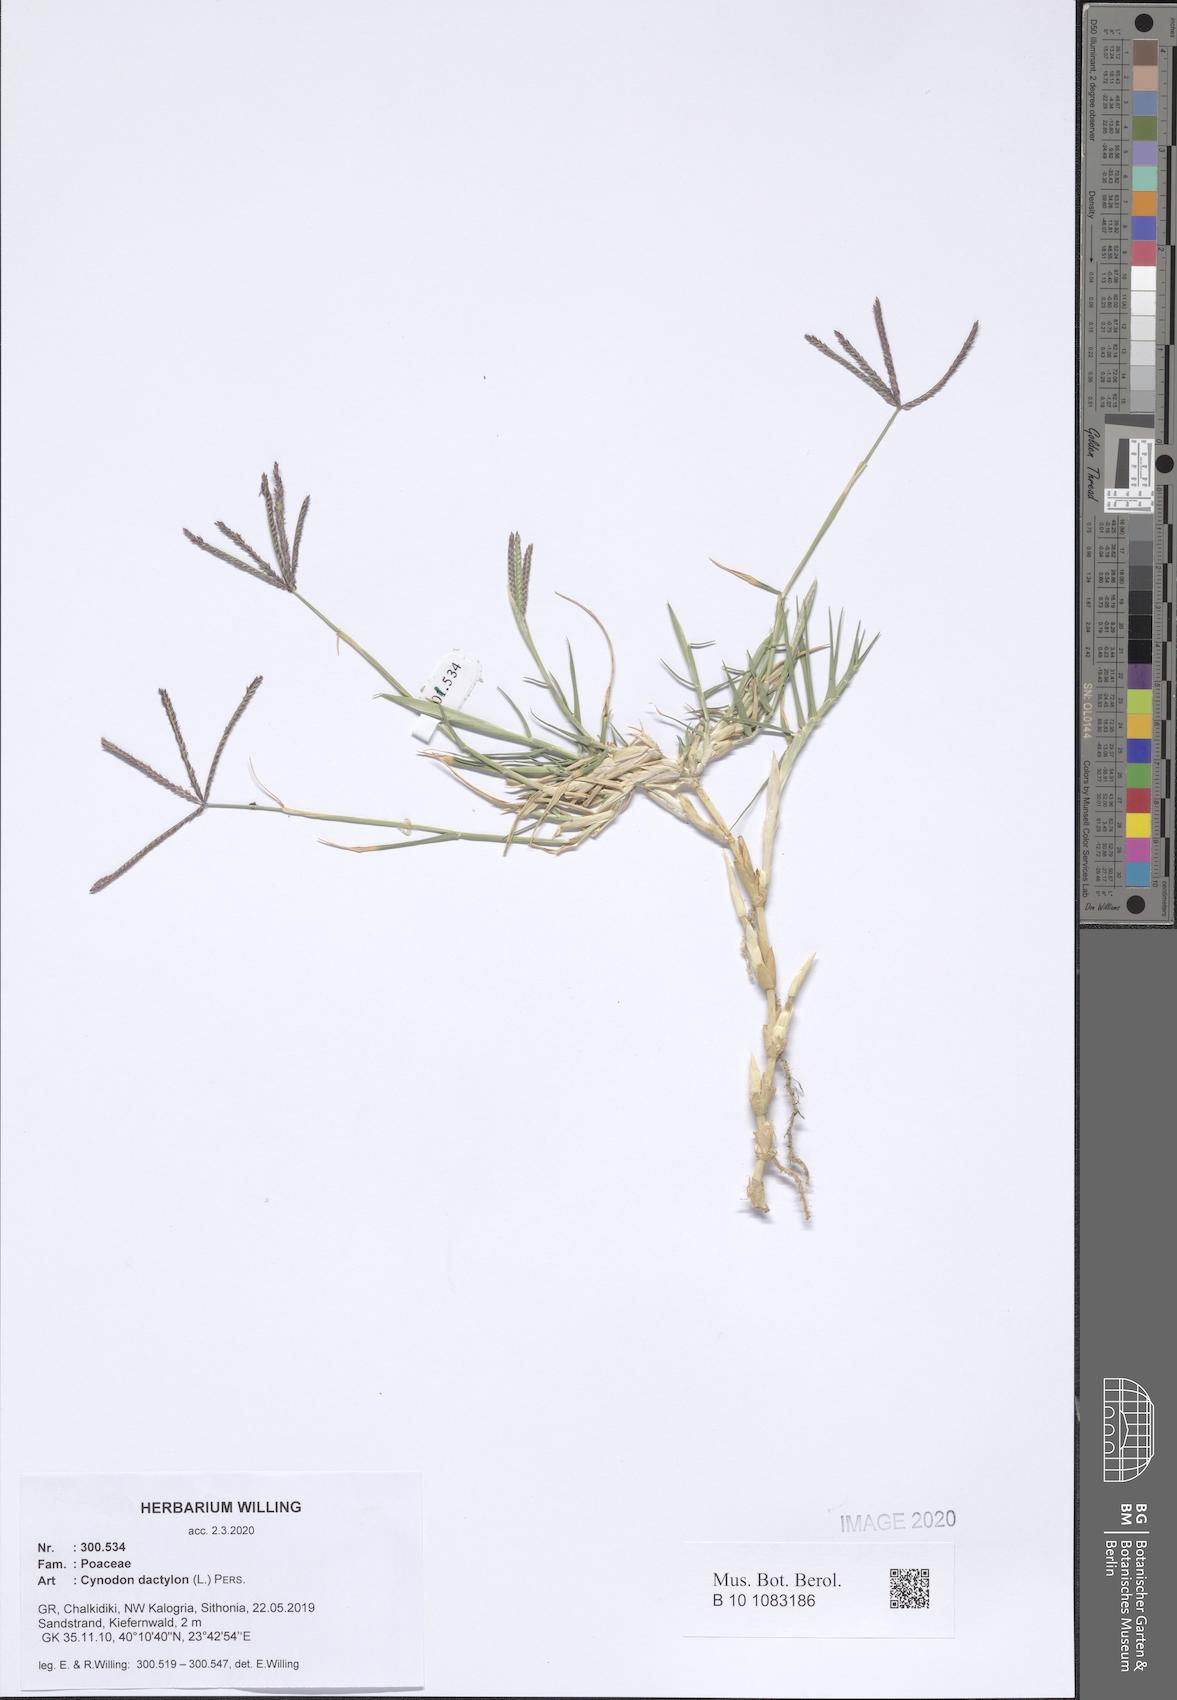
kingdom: Plantae
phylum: Tracheophyta
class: Liliopsida
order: Poales
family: Poaceae
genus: Cynodon
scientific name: Cynodon dactylon
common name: Bermuda grass
